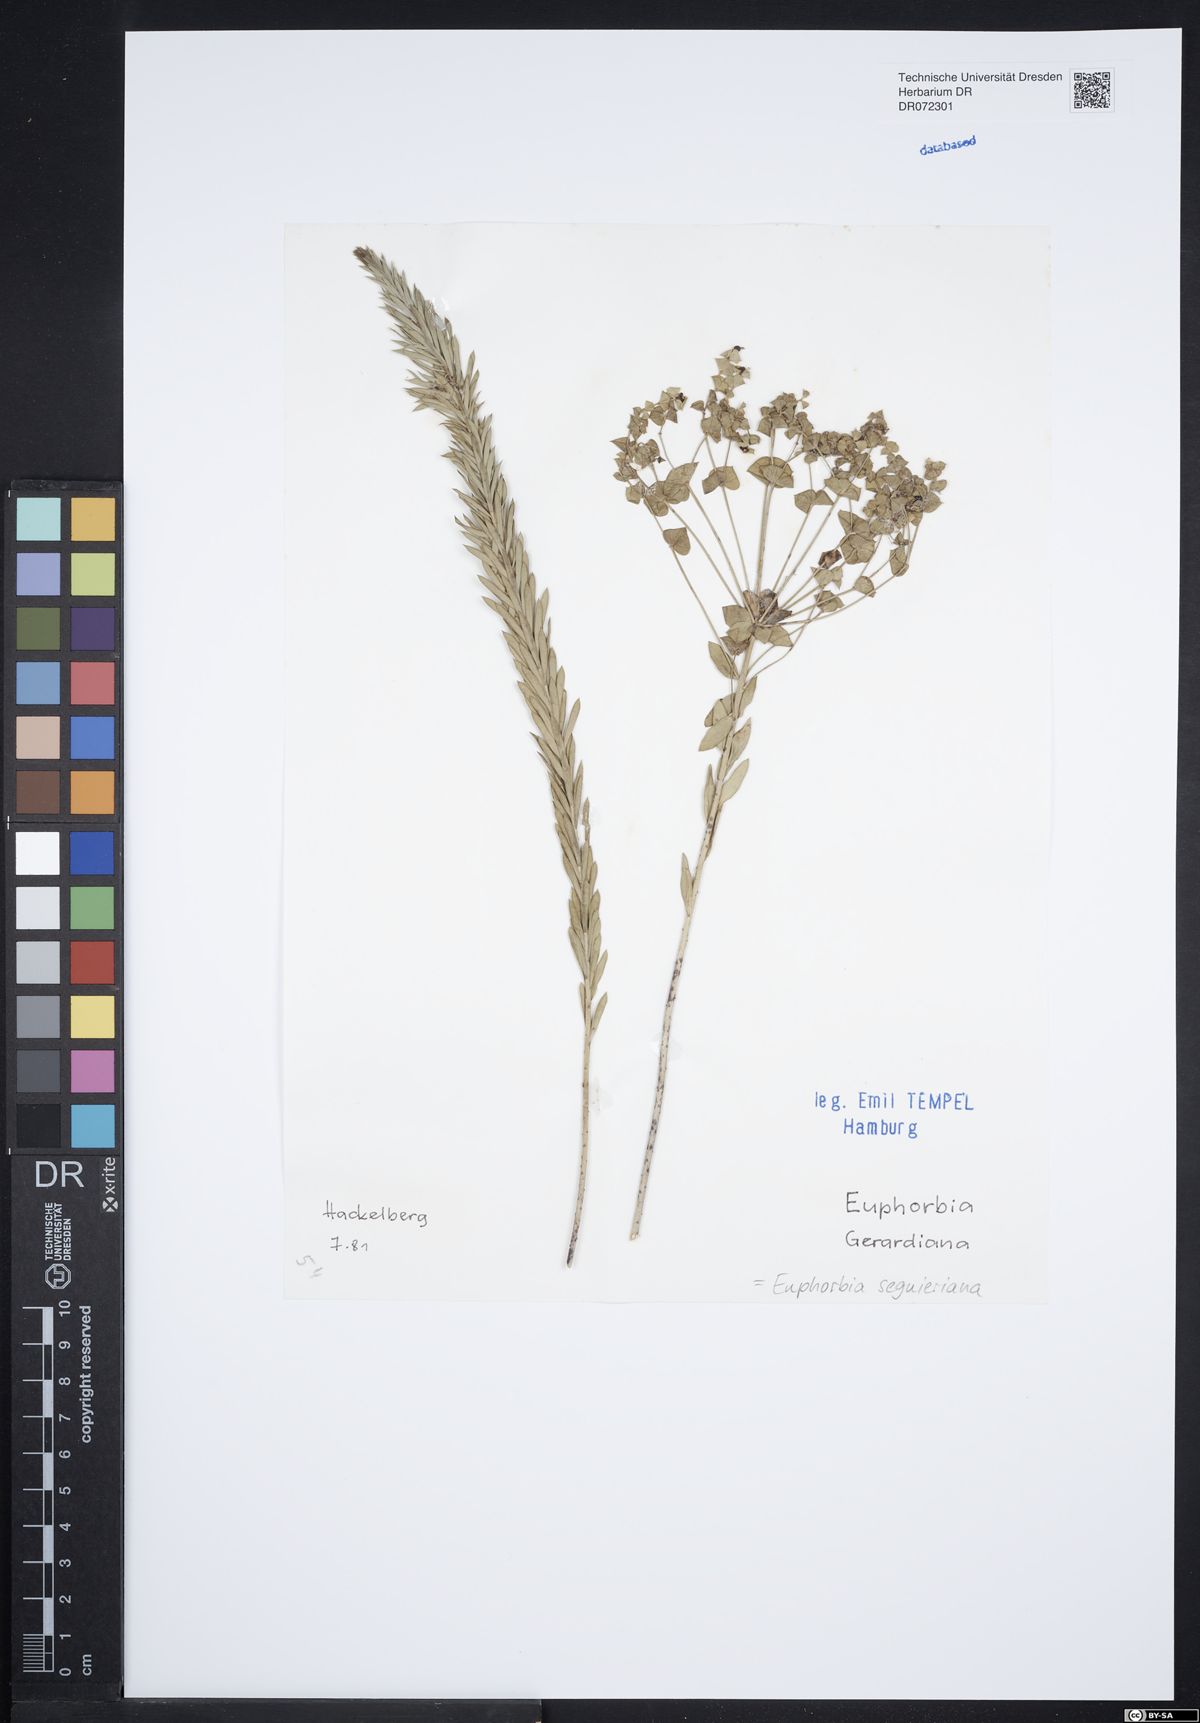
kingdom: Plantae
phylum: Tracheophyta
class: Magnoliopsida
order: Malpighiales
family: Euphorbiaceae
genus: Euphorbia
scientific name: Euphorbia seguieriana
